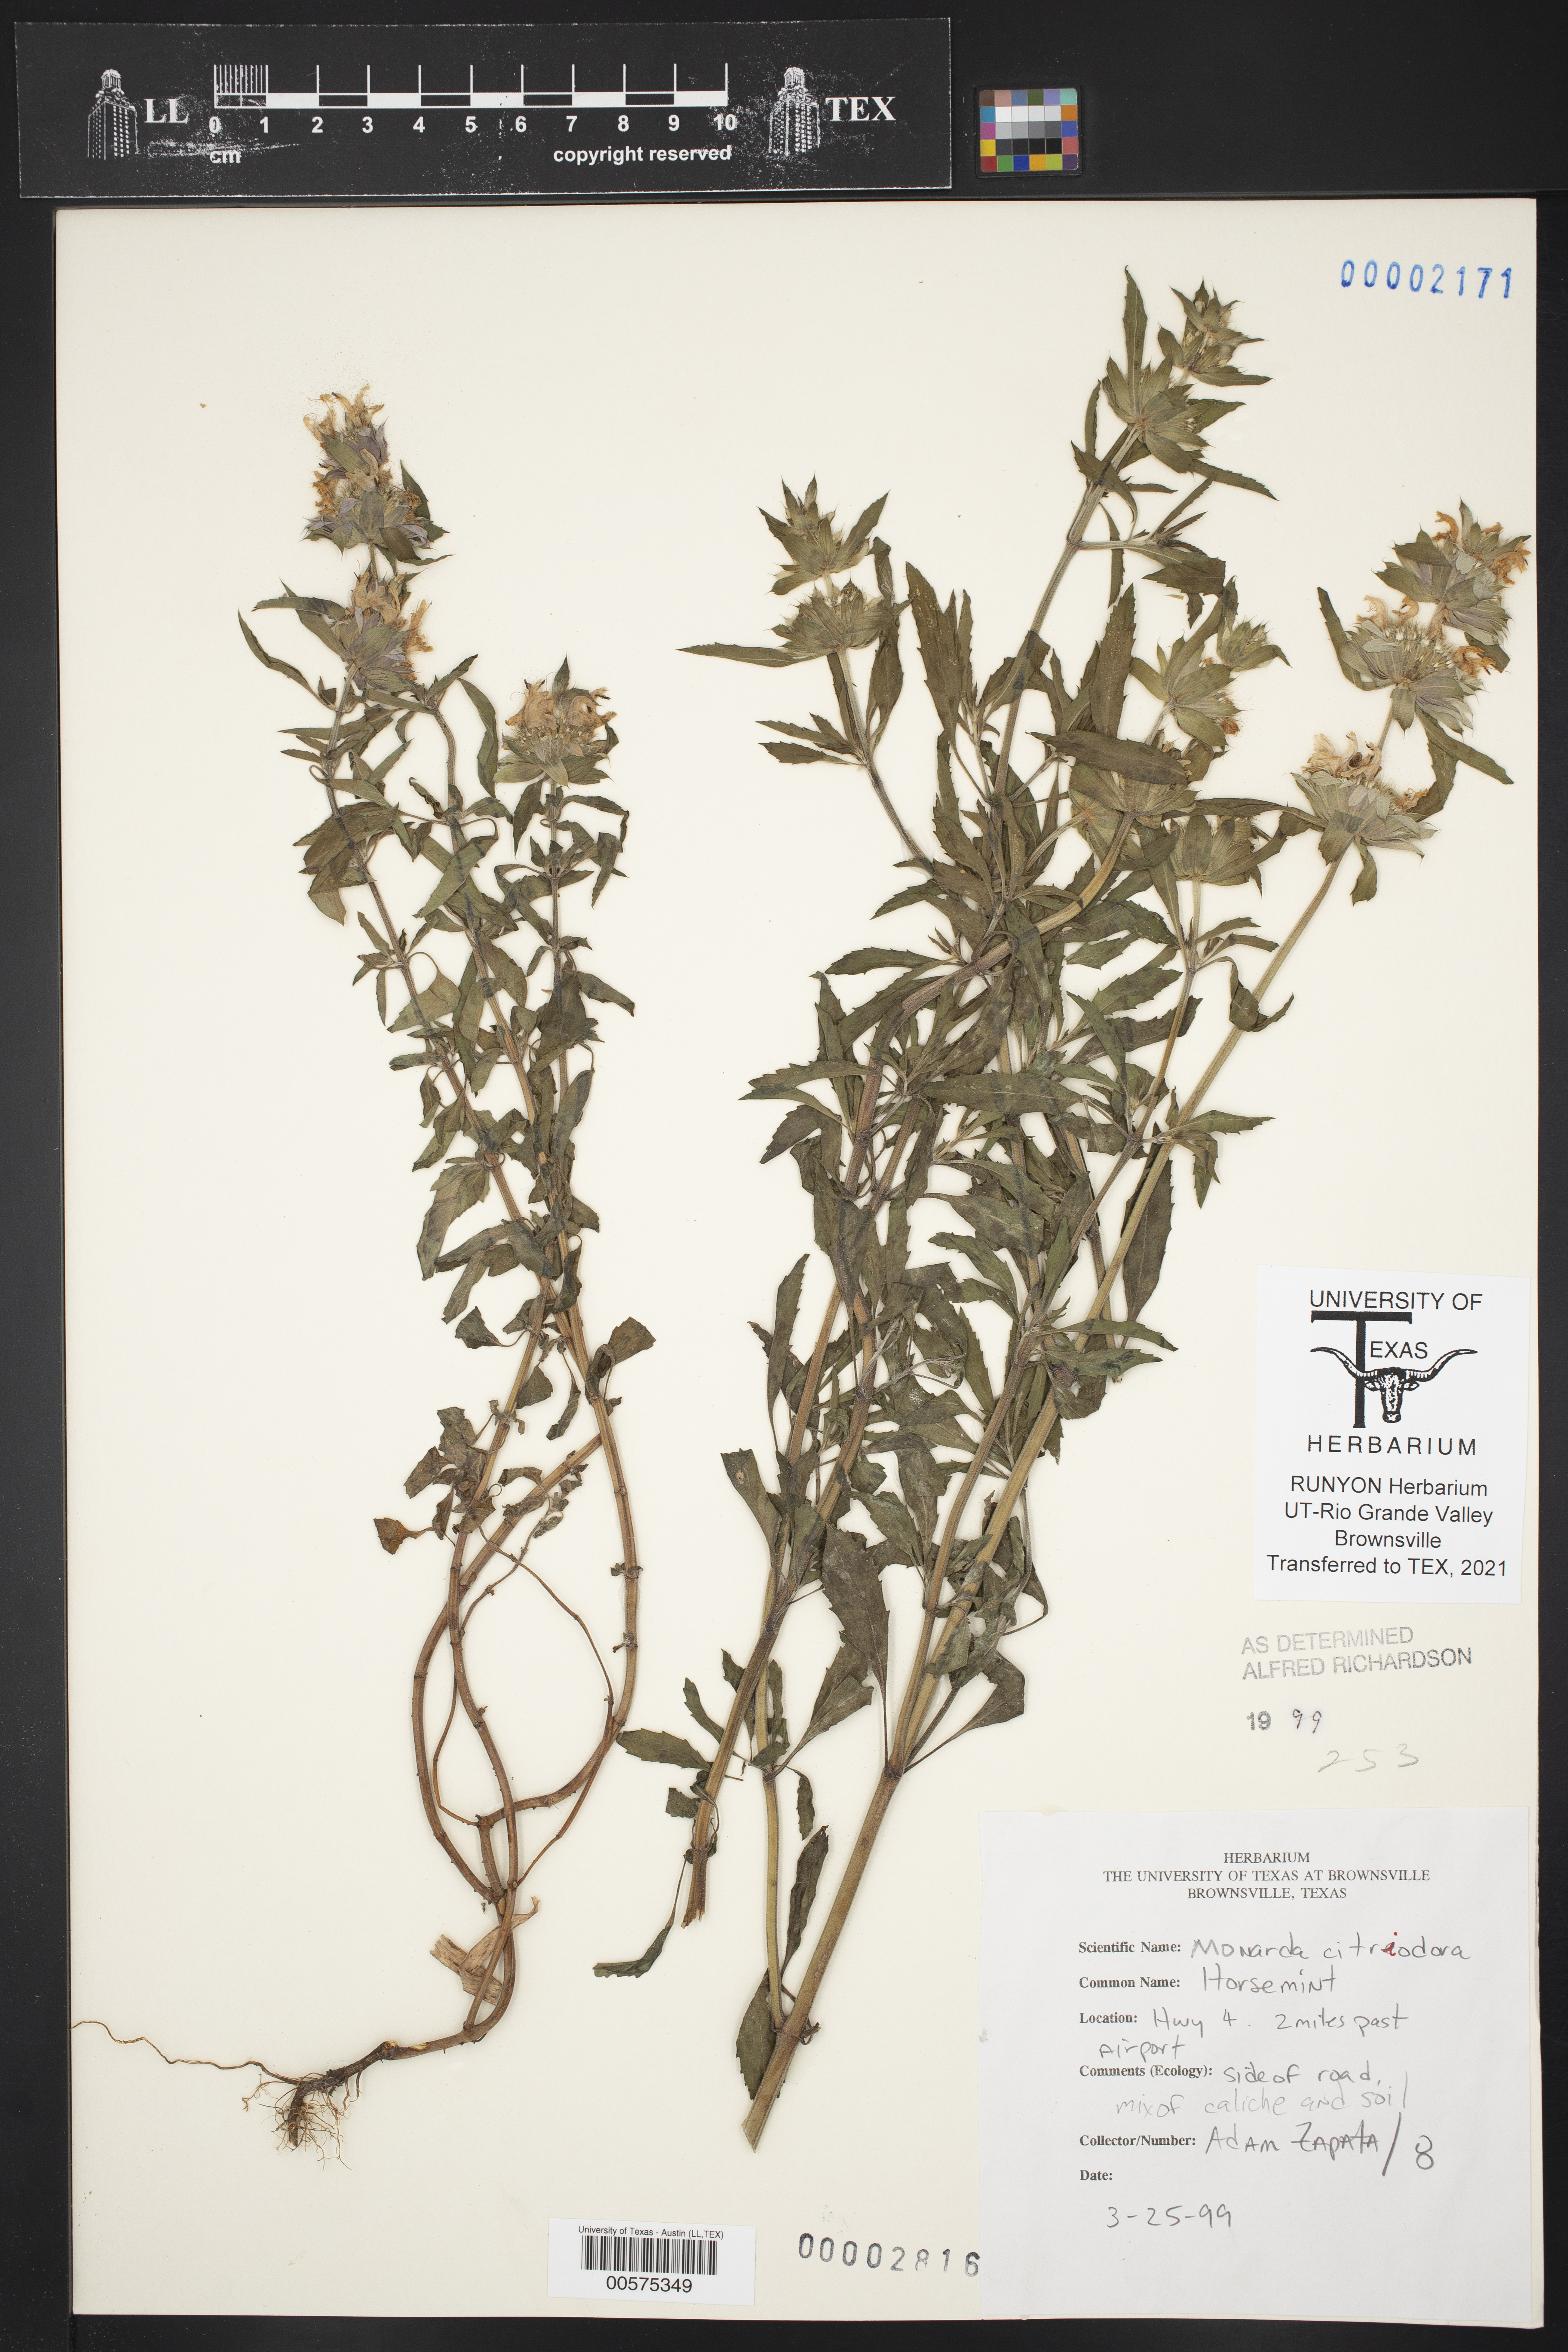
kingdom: Plantae
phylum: Tracheophyta
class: Magnoliopsida
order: Lamiales
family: Lamiaceae
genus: Monarda
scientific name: Monarda citriodora
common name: Lemon beebalm
